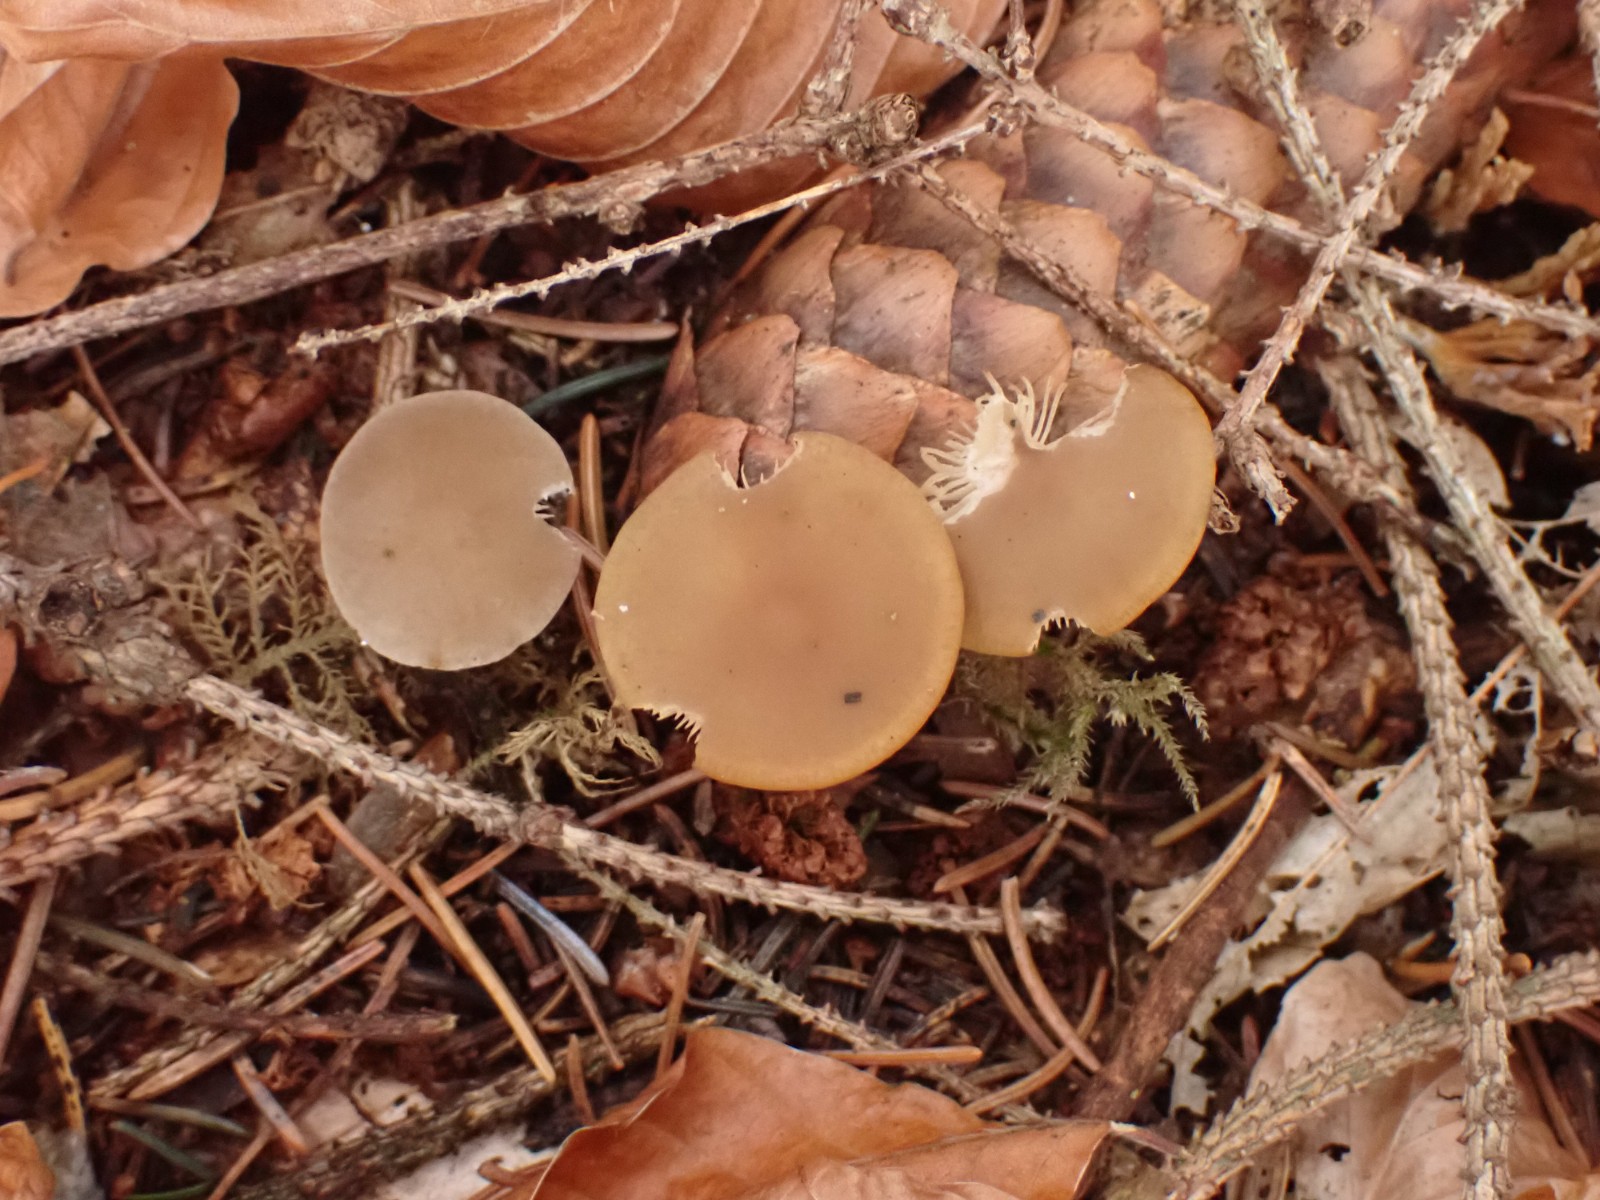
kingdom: Fungi
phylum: Basidiomycota
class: Agaricomycetes
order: Agaricales
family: Physalacriaceae
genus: Strobilurus
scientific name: Strobilurus esculentus
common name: gran-koglehat
